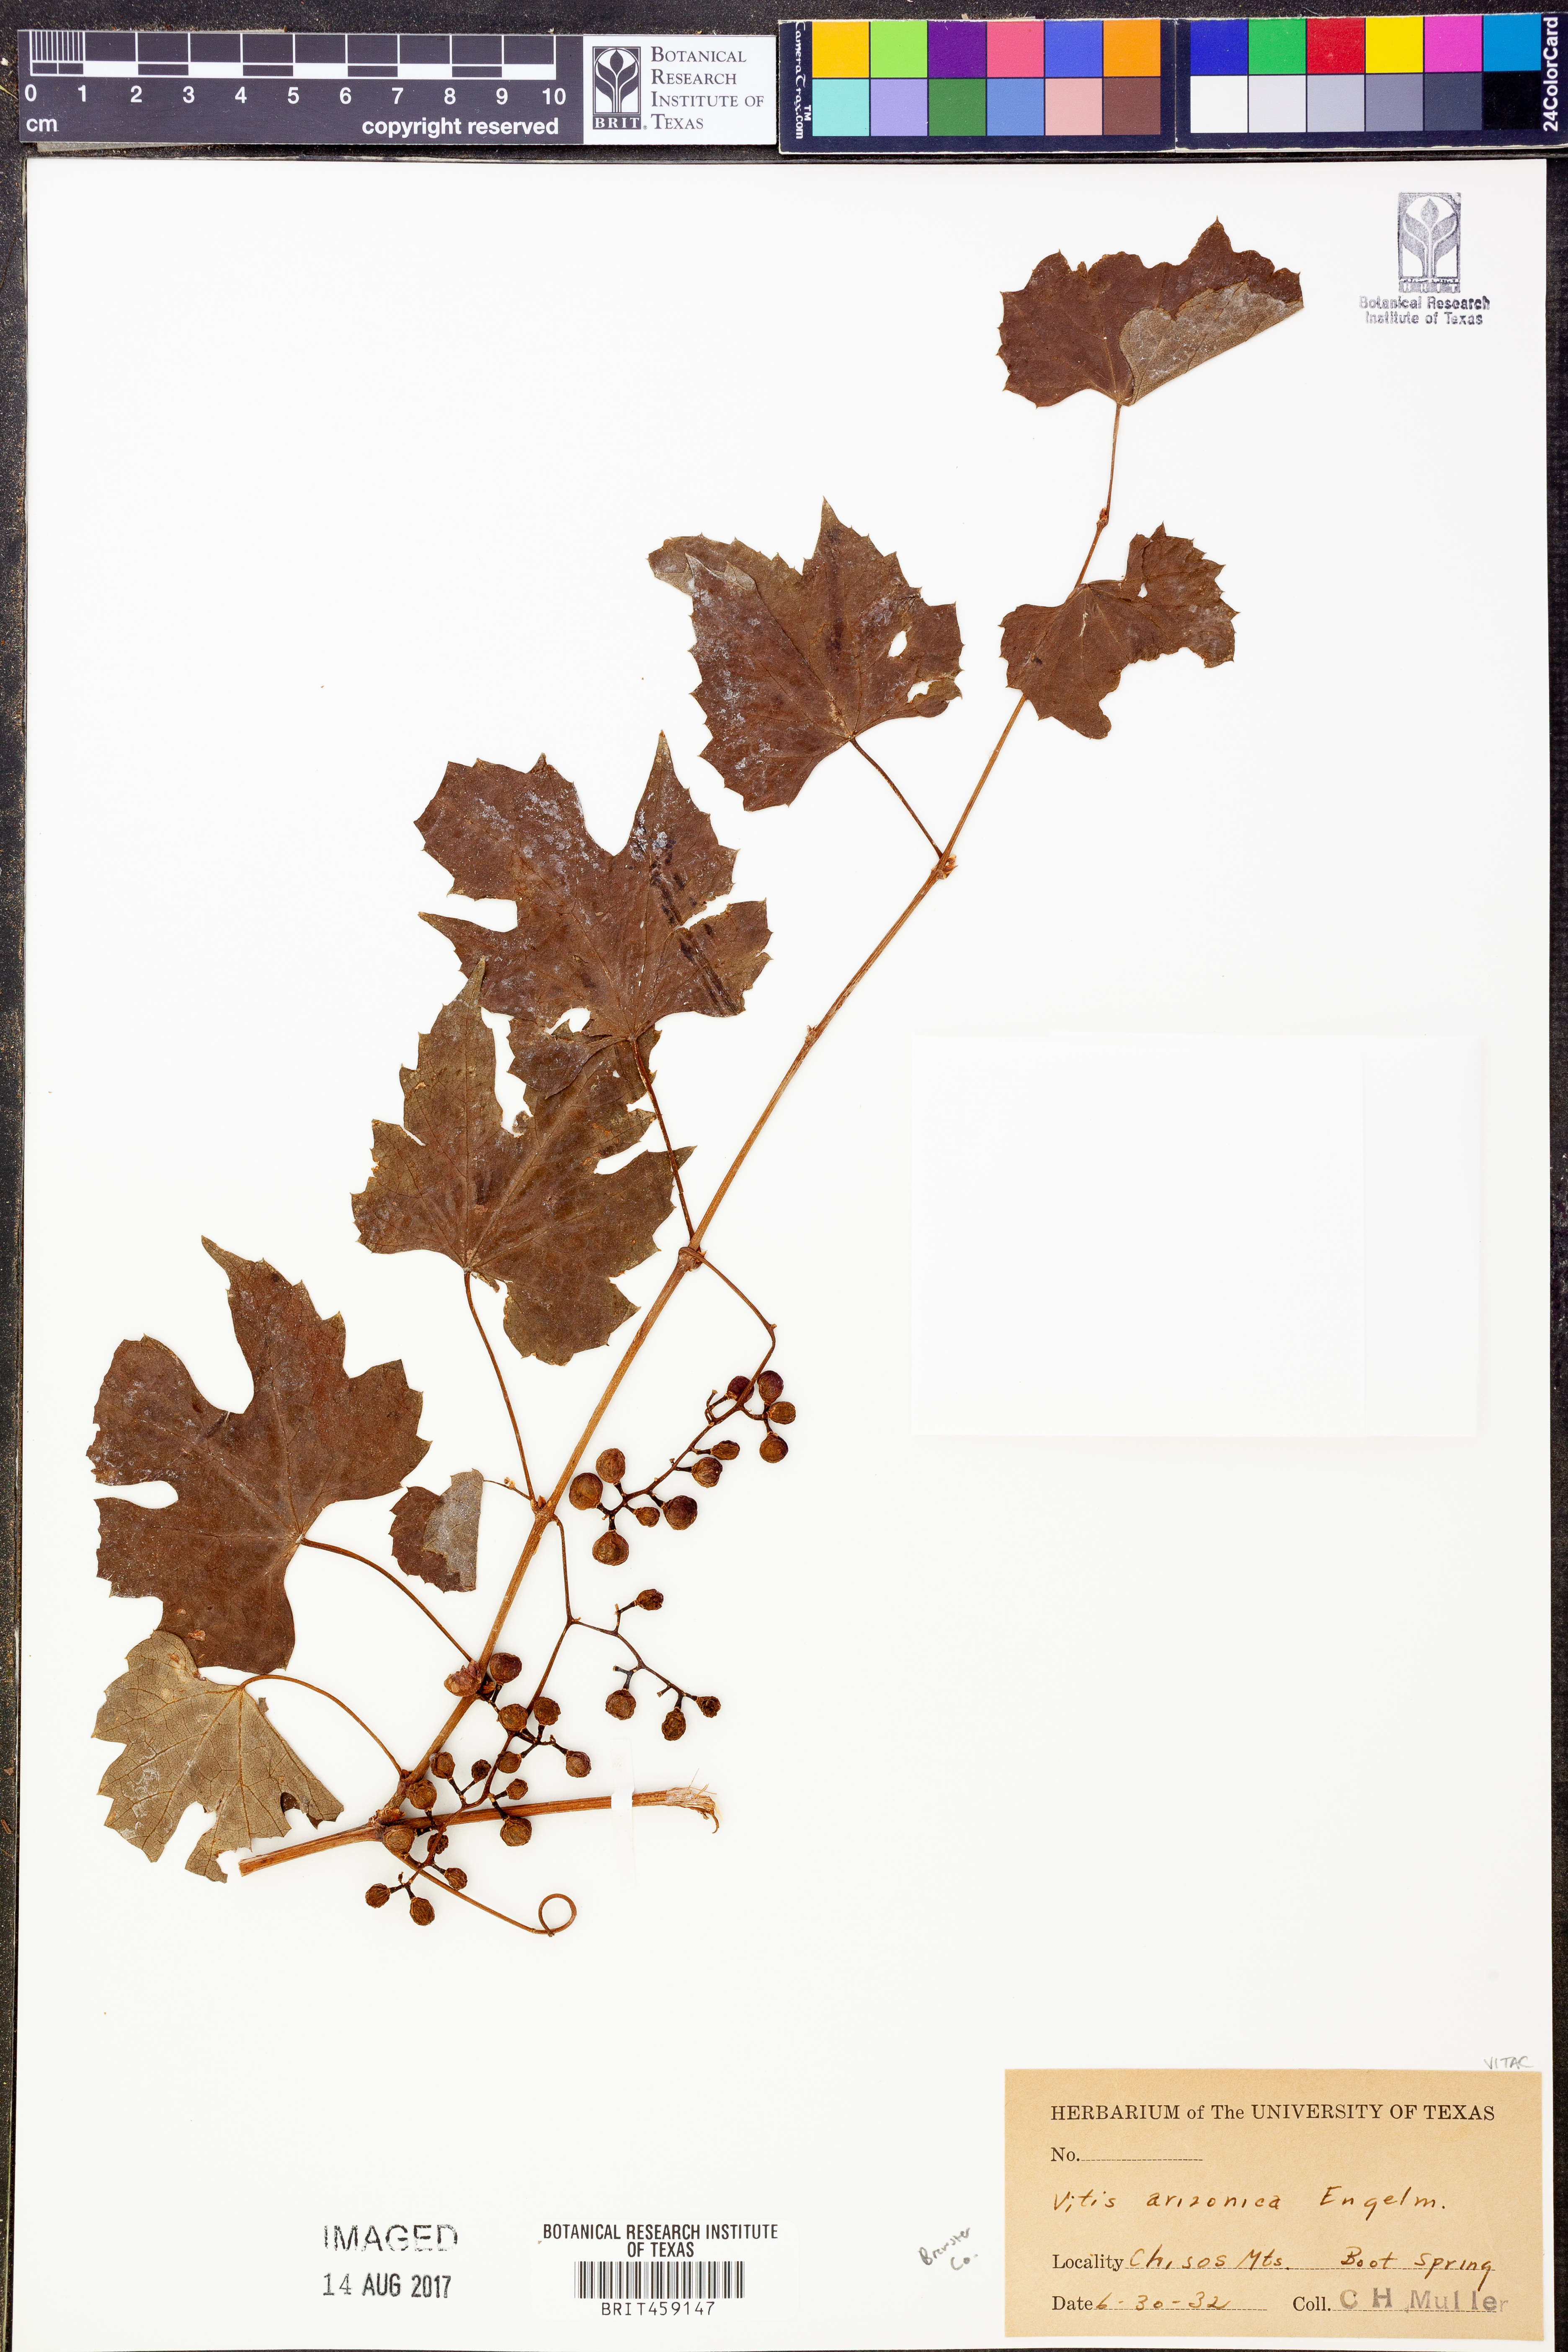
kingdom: Plantae
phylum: Tracheophyta
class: Magnoliopsida
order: Vitales
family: Vitaceae
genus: Vitis
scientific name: Vitis arizonica
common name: Canyon grape
